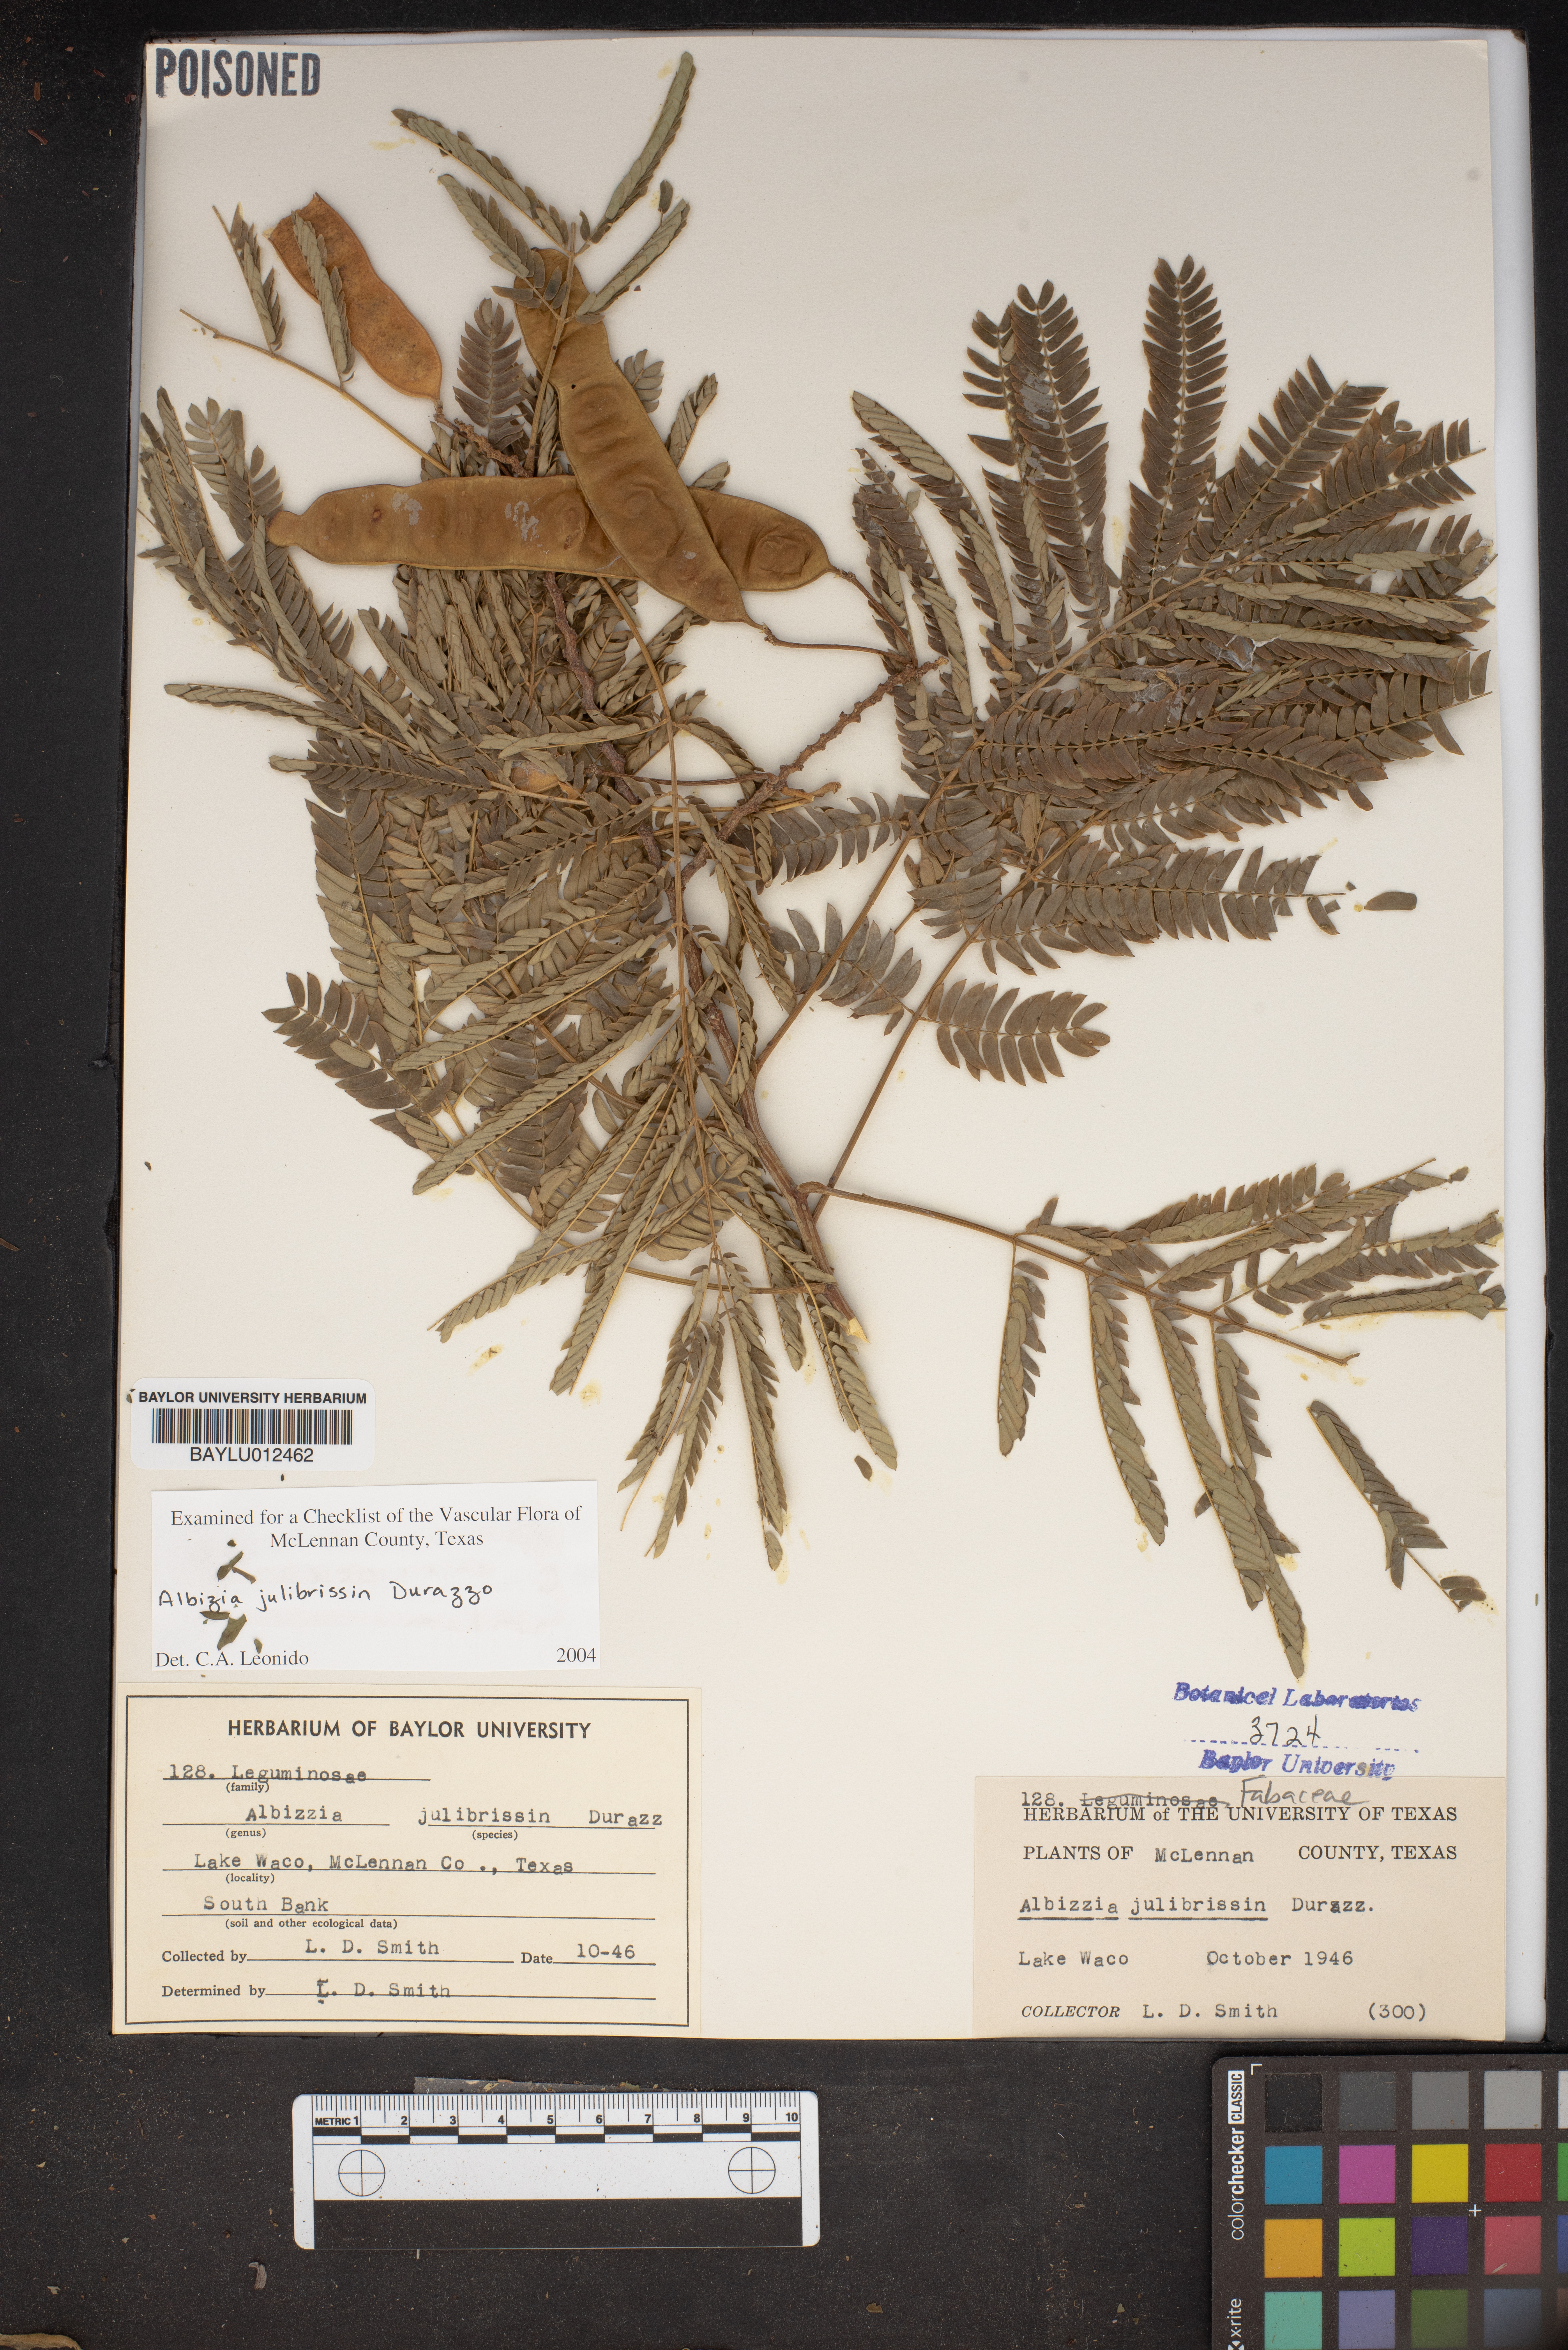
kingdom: Plantae
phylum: Tracheophyta
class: Magnoliopsida
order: Fabales
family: Fabaceae
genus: Albizia
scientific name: Albizia julibrissin
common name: Silktree
